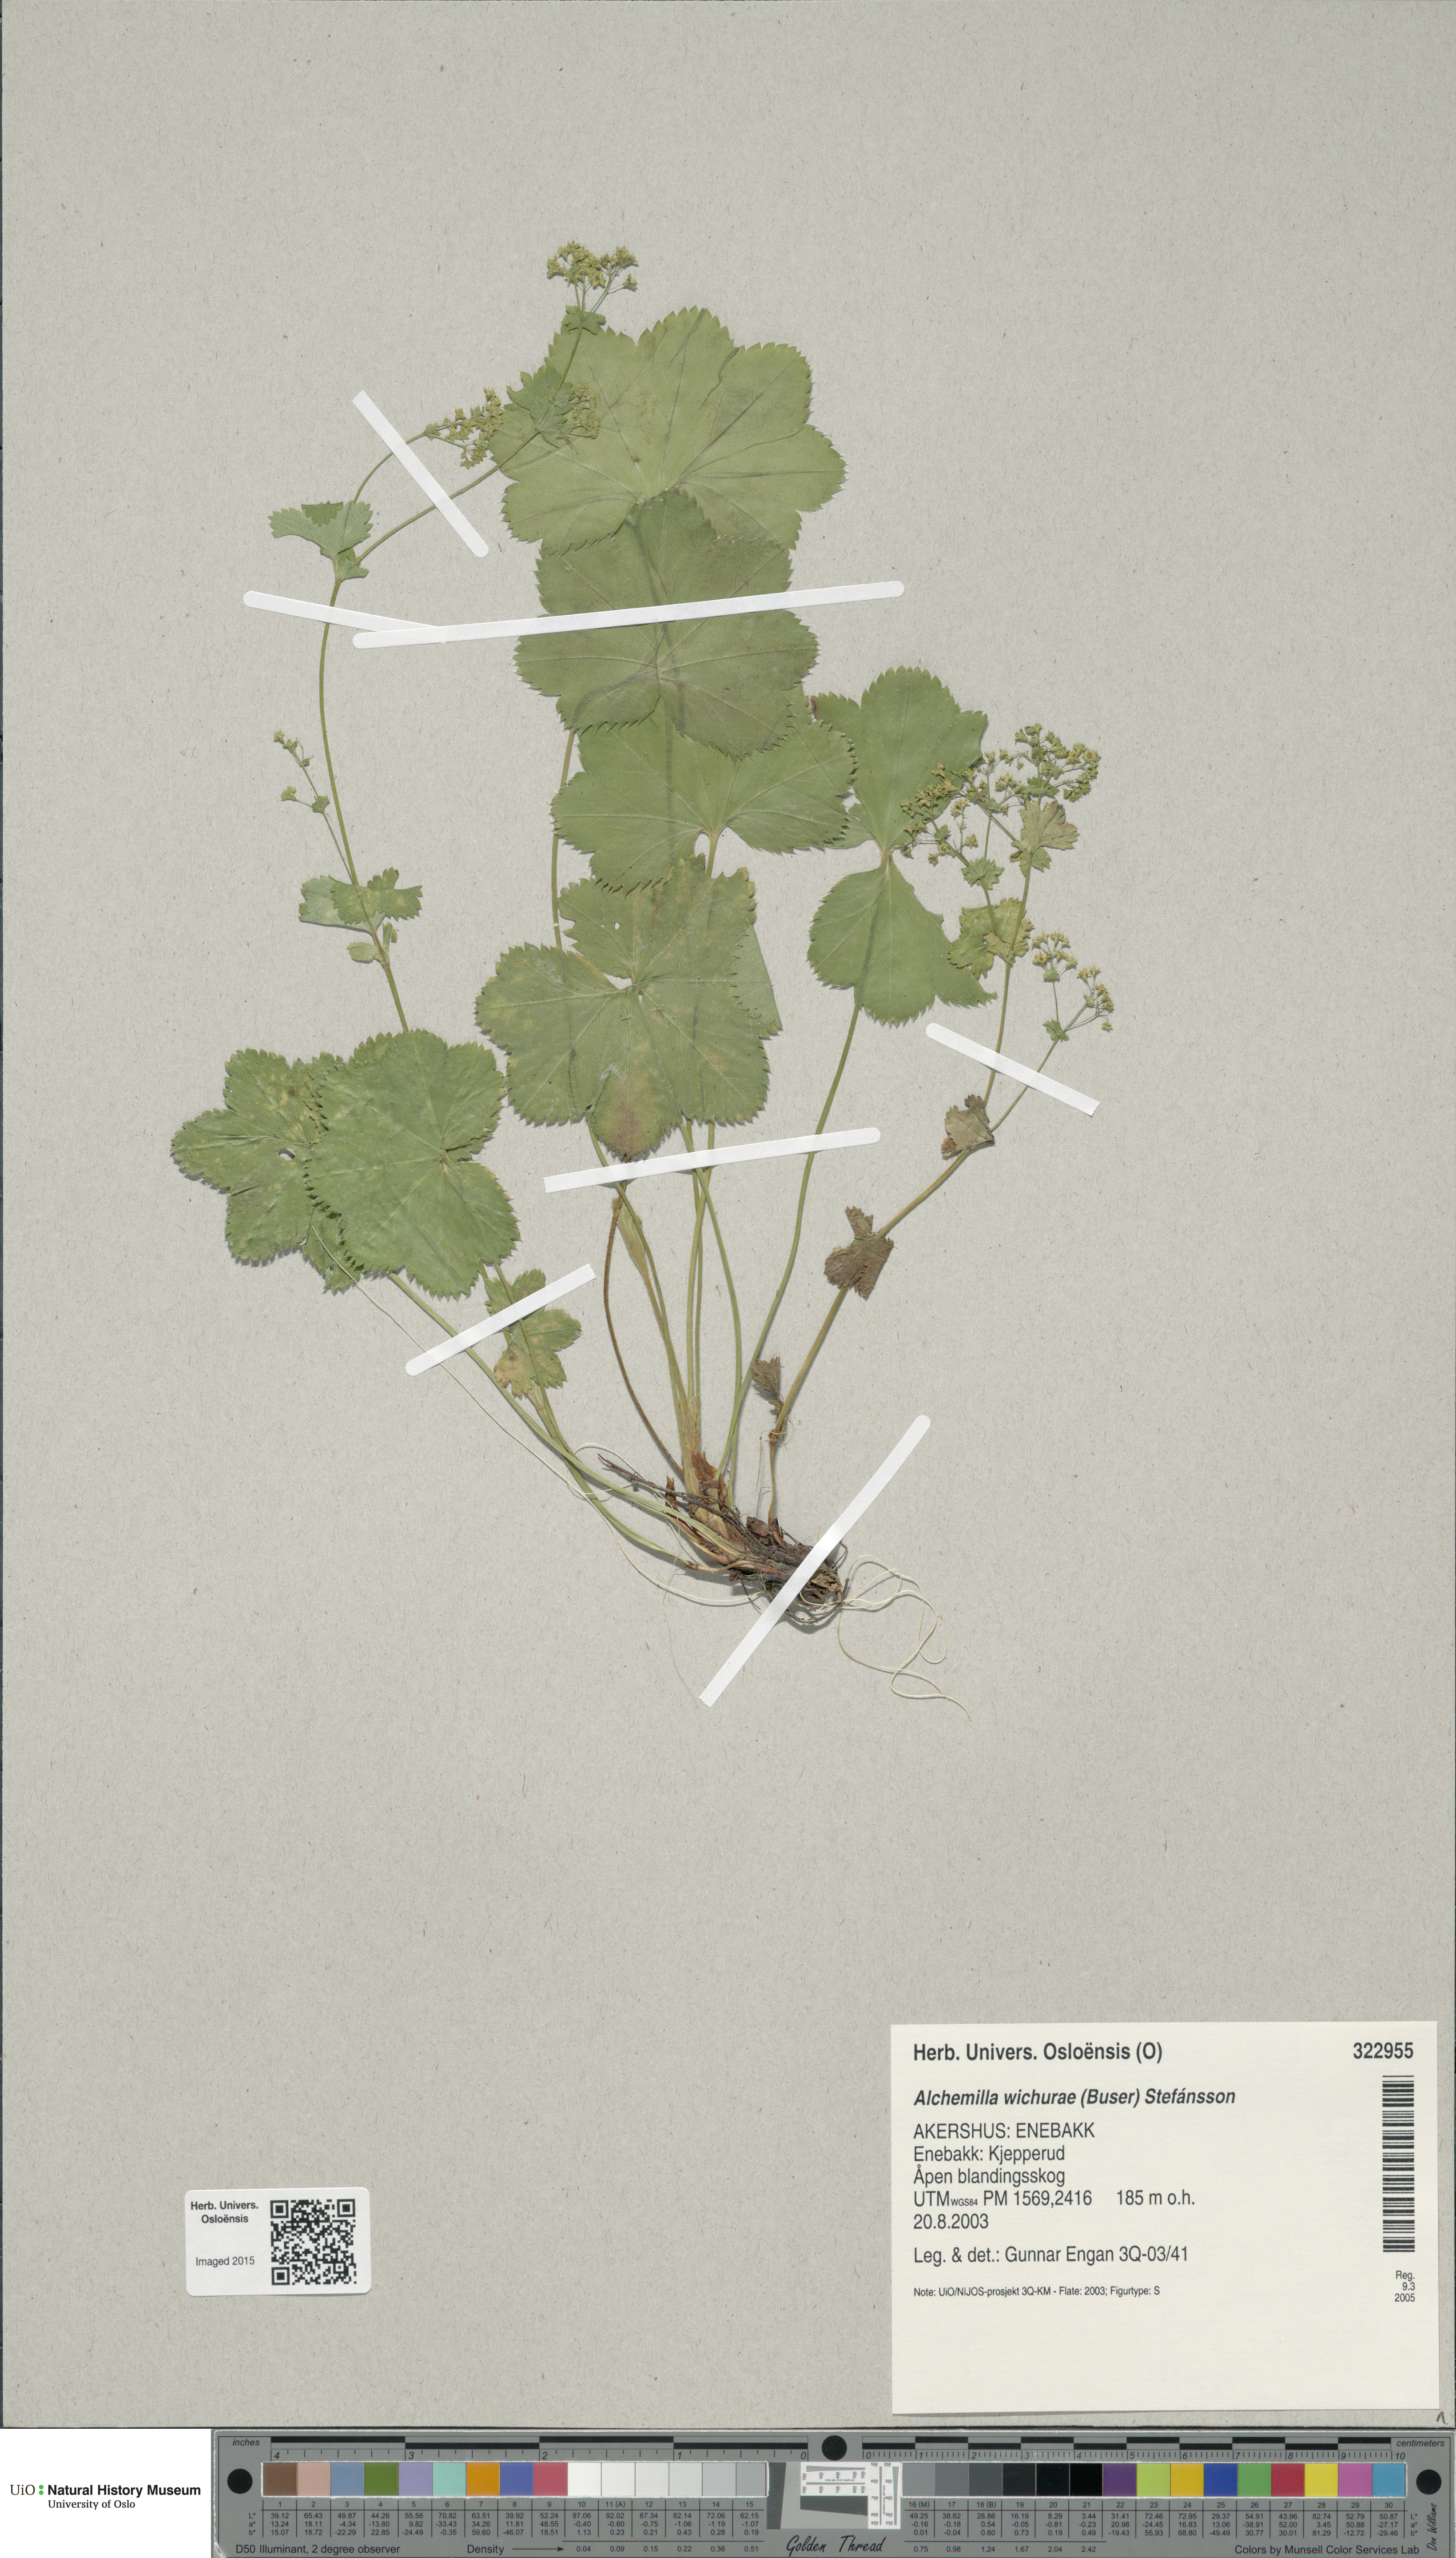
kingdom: Plantae
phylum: Tracheophyta
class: Magnoliopsida
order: Rosales
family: Rosaceae
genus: Alchemilla
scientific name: Alchemilla wichurae
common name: Rock lady's mantle
